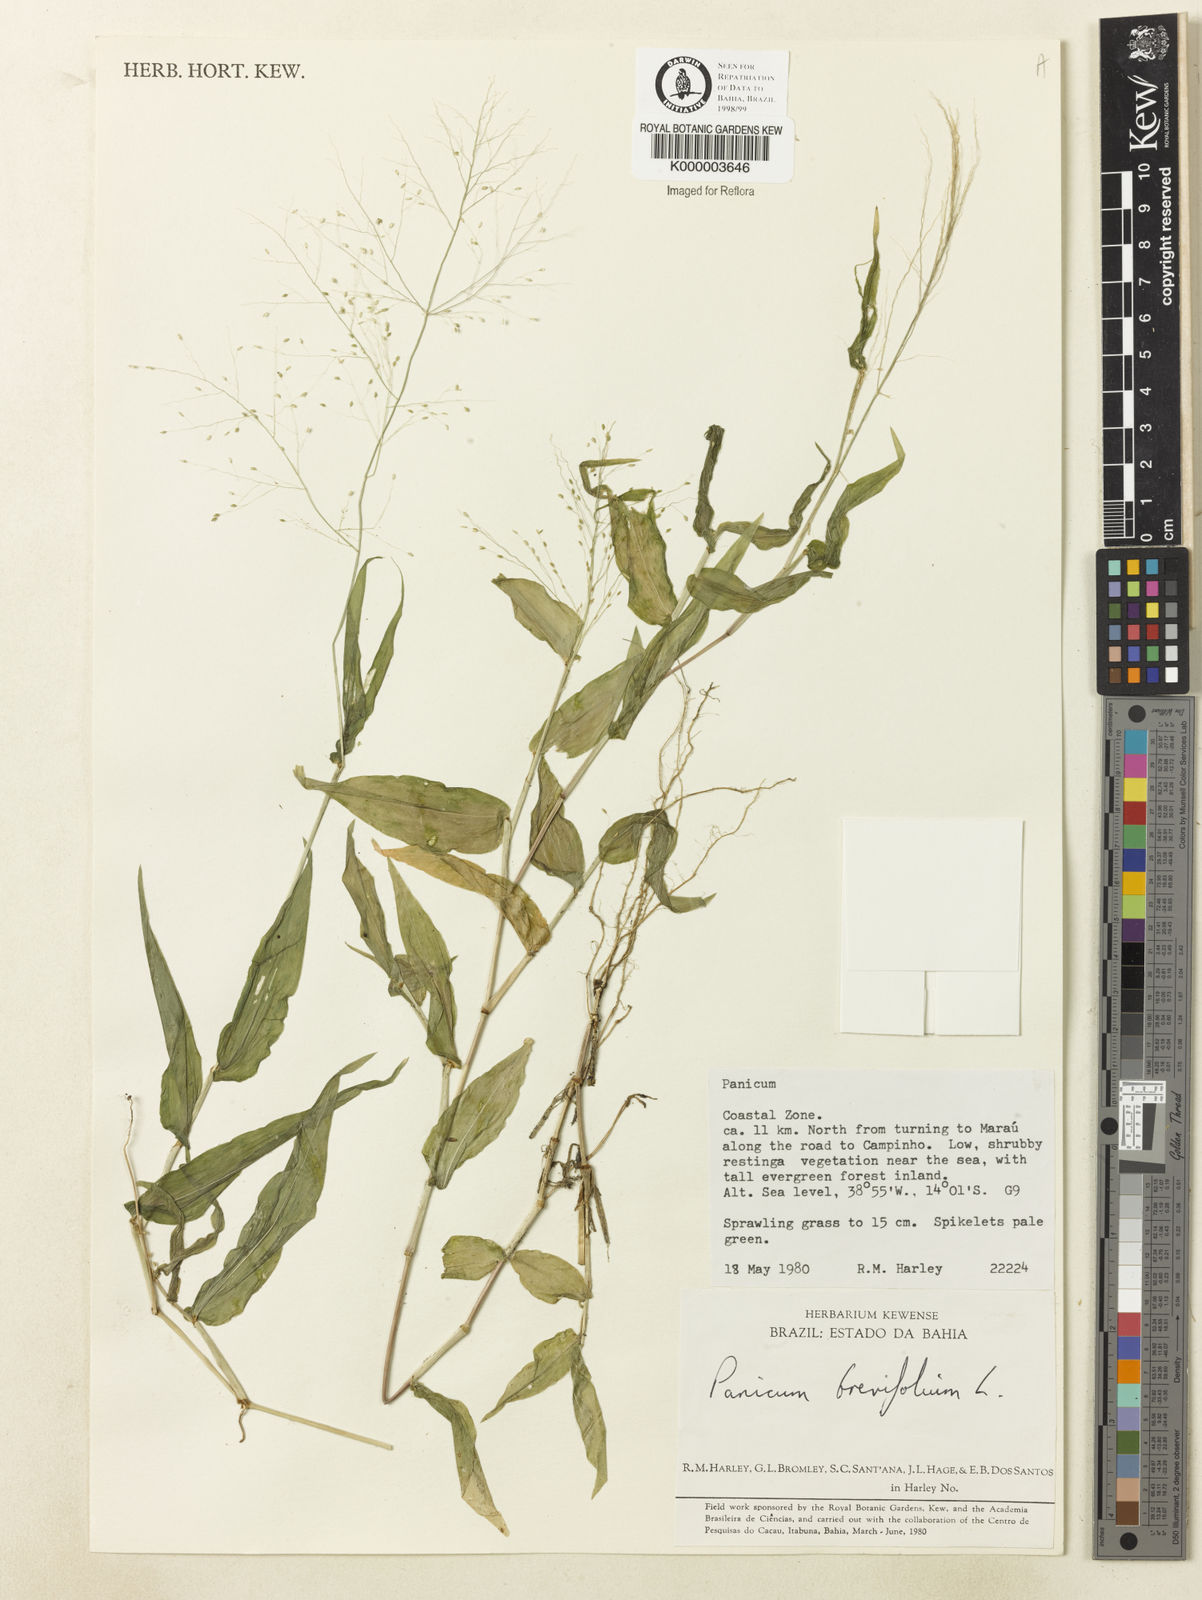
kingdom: Plantae
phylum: Tracheophyta
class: Liliopsida
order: Poales
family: Poaceae
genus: Panicum
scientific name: Panicum brevifolium
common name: Shortleaf panic grass
